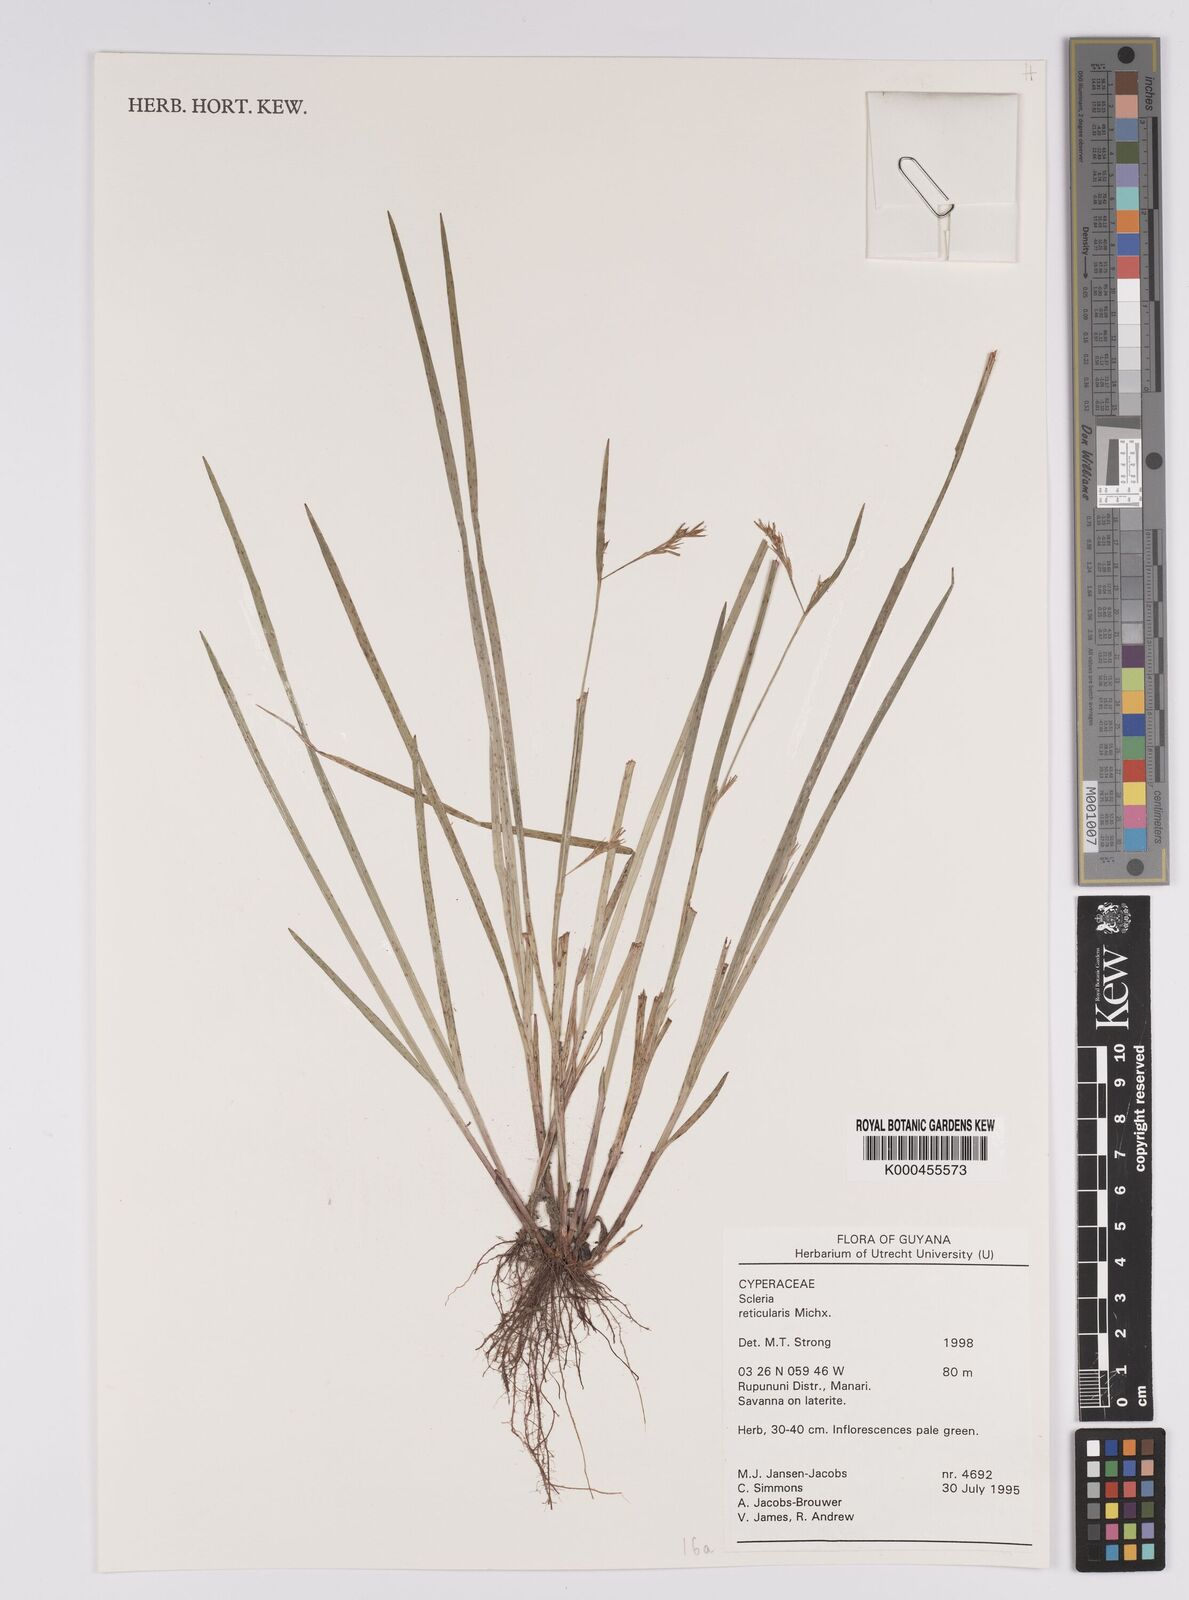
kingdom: Plantae
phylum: Tracheophyta
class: Liliopsida
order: Poales
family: Cyperaceae
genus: Scleria
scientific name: Scleria
